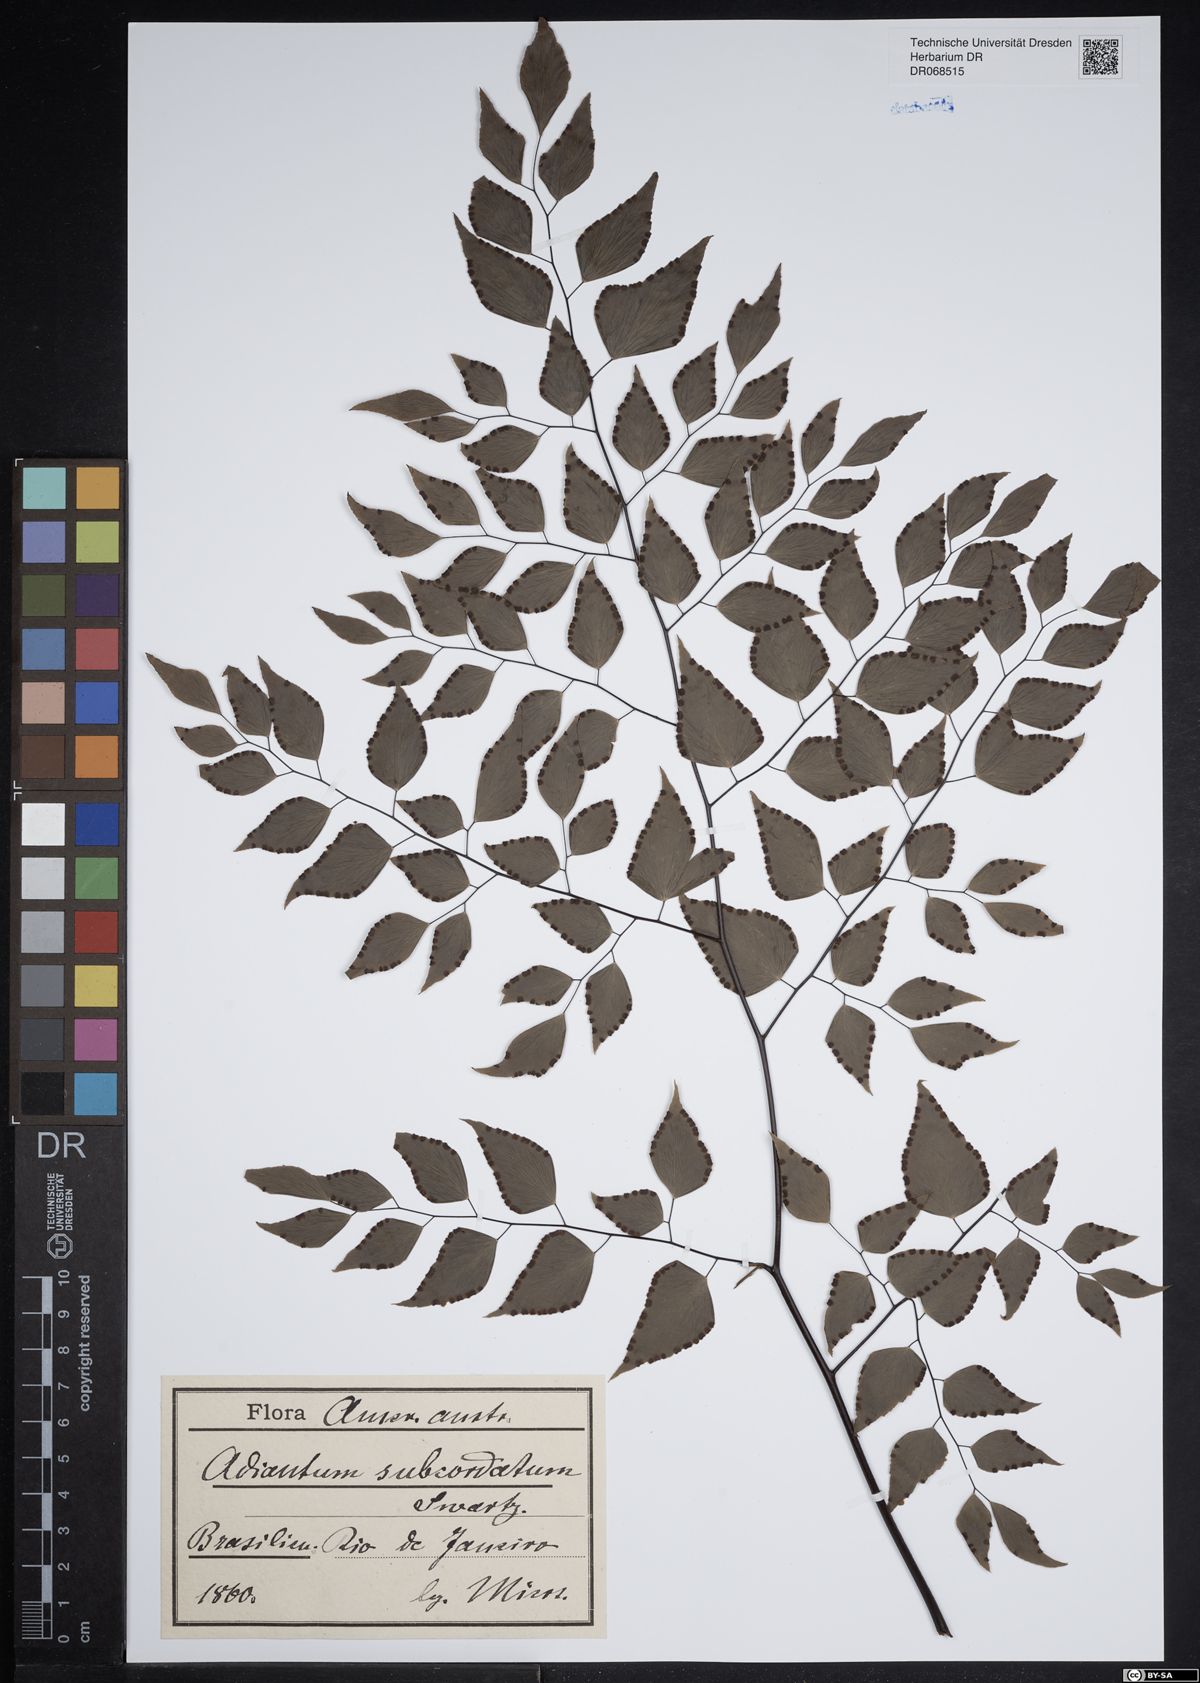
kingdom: Plantae
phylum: Tracheophyta
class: Polypodiopsida
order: Polypodiales
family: Pteridaceae
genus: Adiantum
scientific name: Adiantum subcordatum
